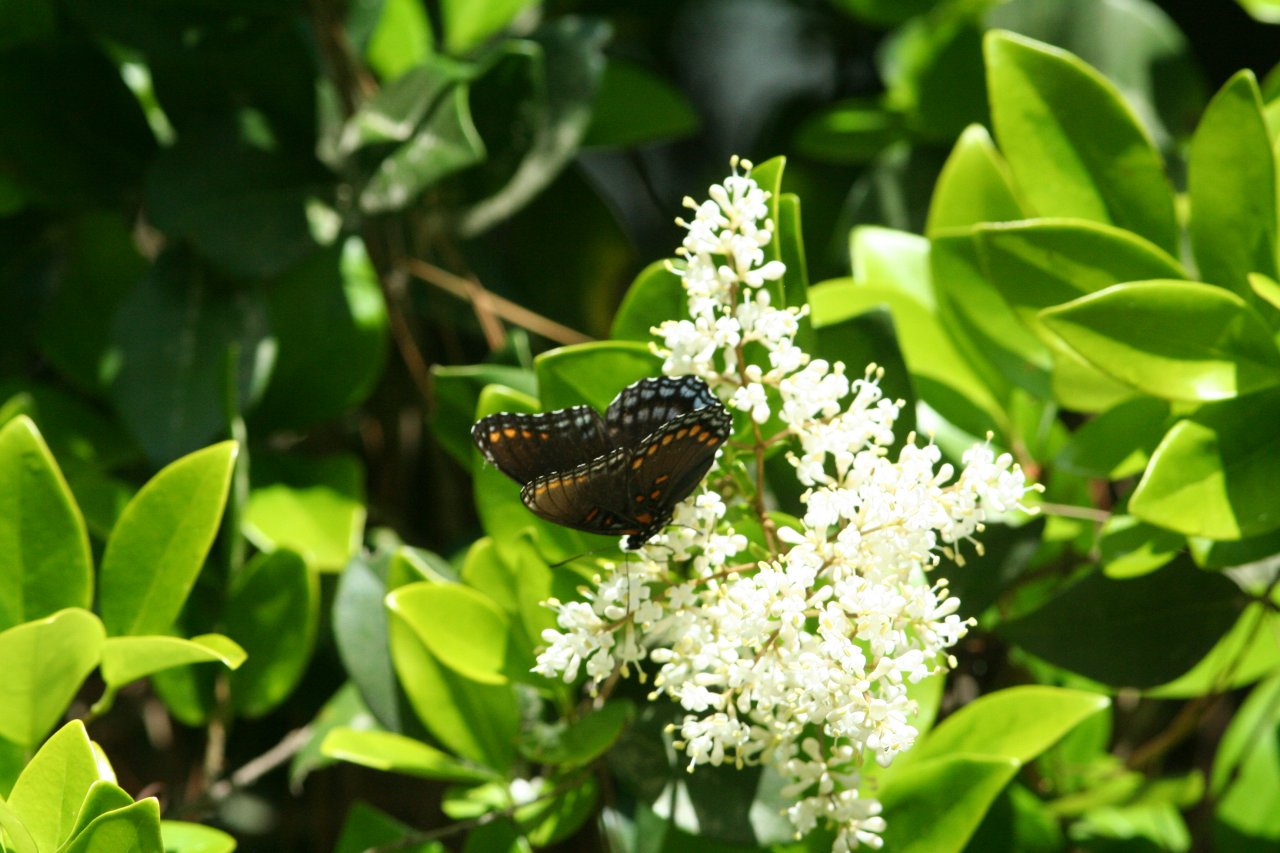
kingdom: Animalia
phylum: Arthropoda
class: Insecta
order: Lepidoptera
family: Nymphalidae
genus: Limenitis
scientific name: Limenitis astyanax
